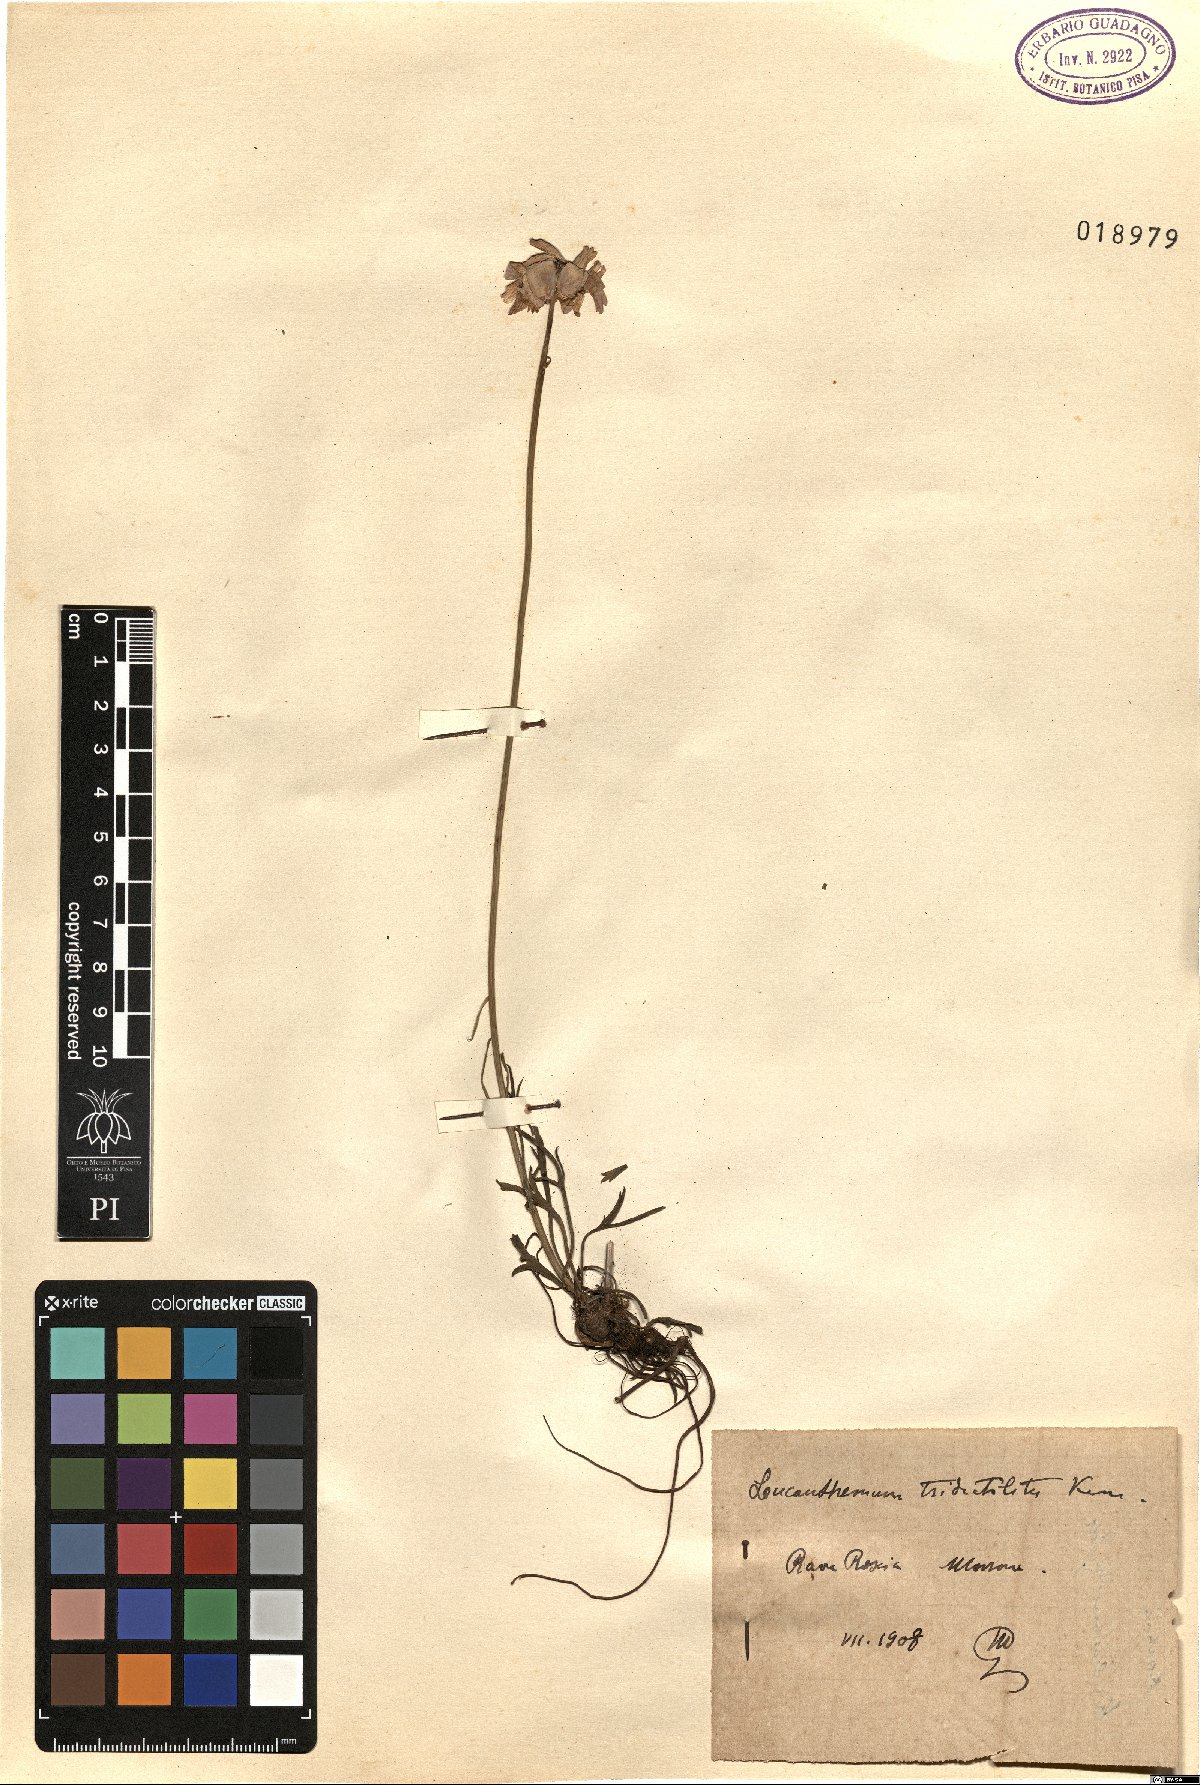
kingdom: Plantae
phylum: Tracheophyta
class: Magnoliopsida
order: Asterales
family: Asteraceae
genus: Leucanthemum
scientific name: Leucanthemum tridactylites
